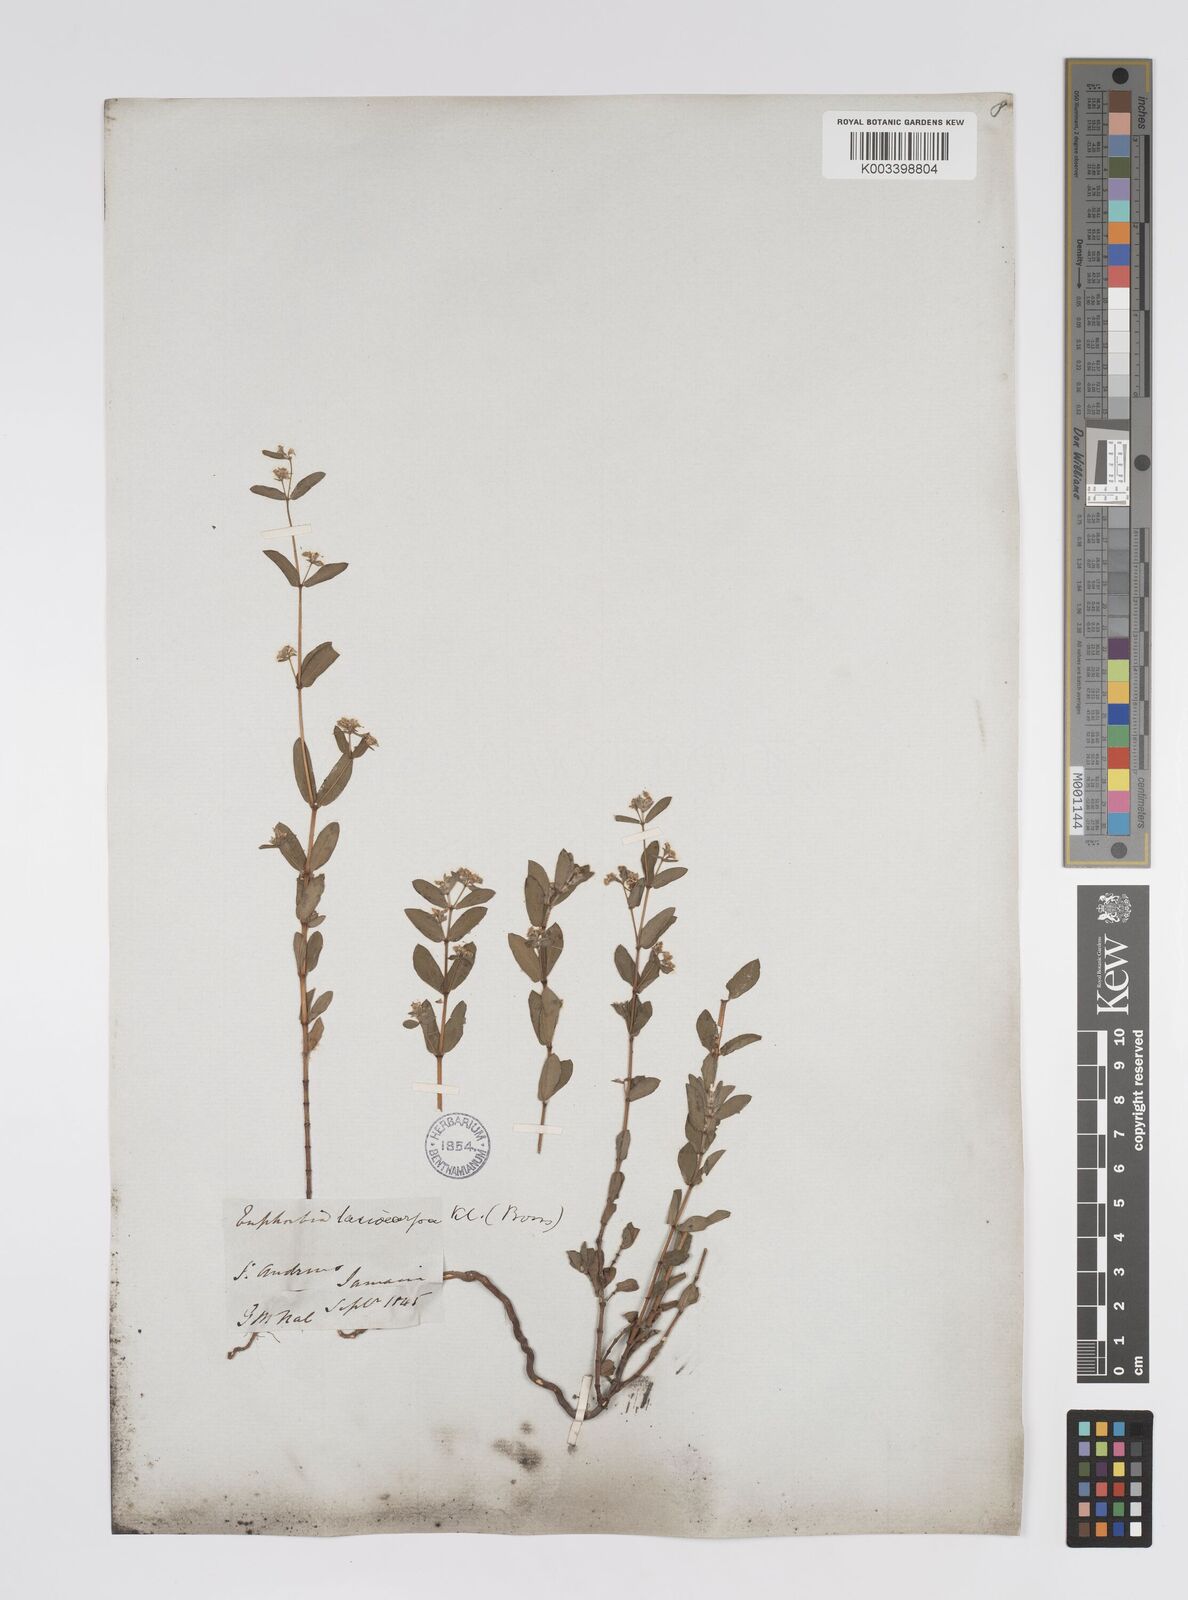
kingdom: Plantae
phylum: Tracheophyta
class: Magnoliopsida
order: Malpighiales
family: Euphorbiaceae
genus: Euphorbia
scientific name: Euphorbia lasiocarpa
